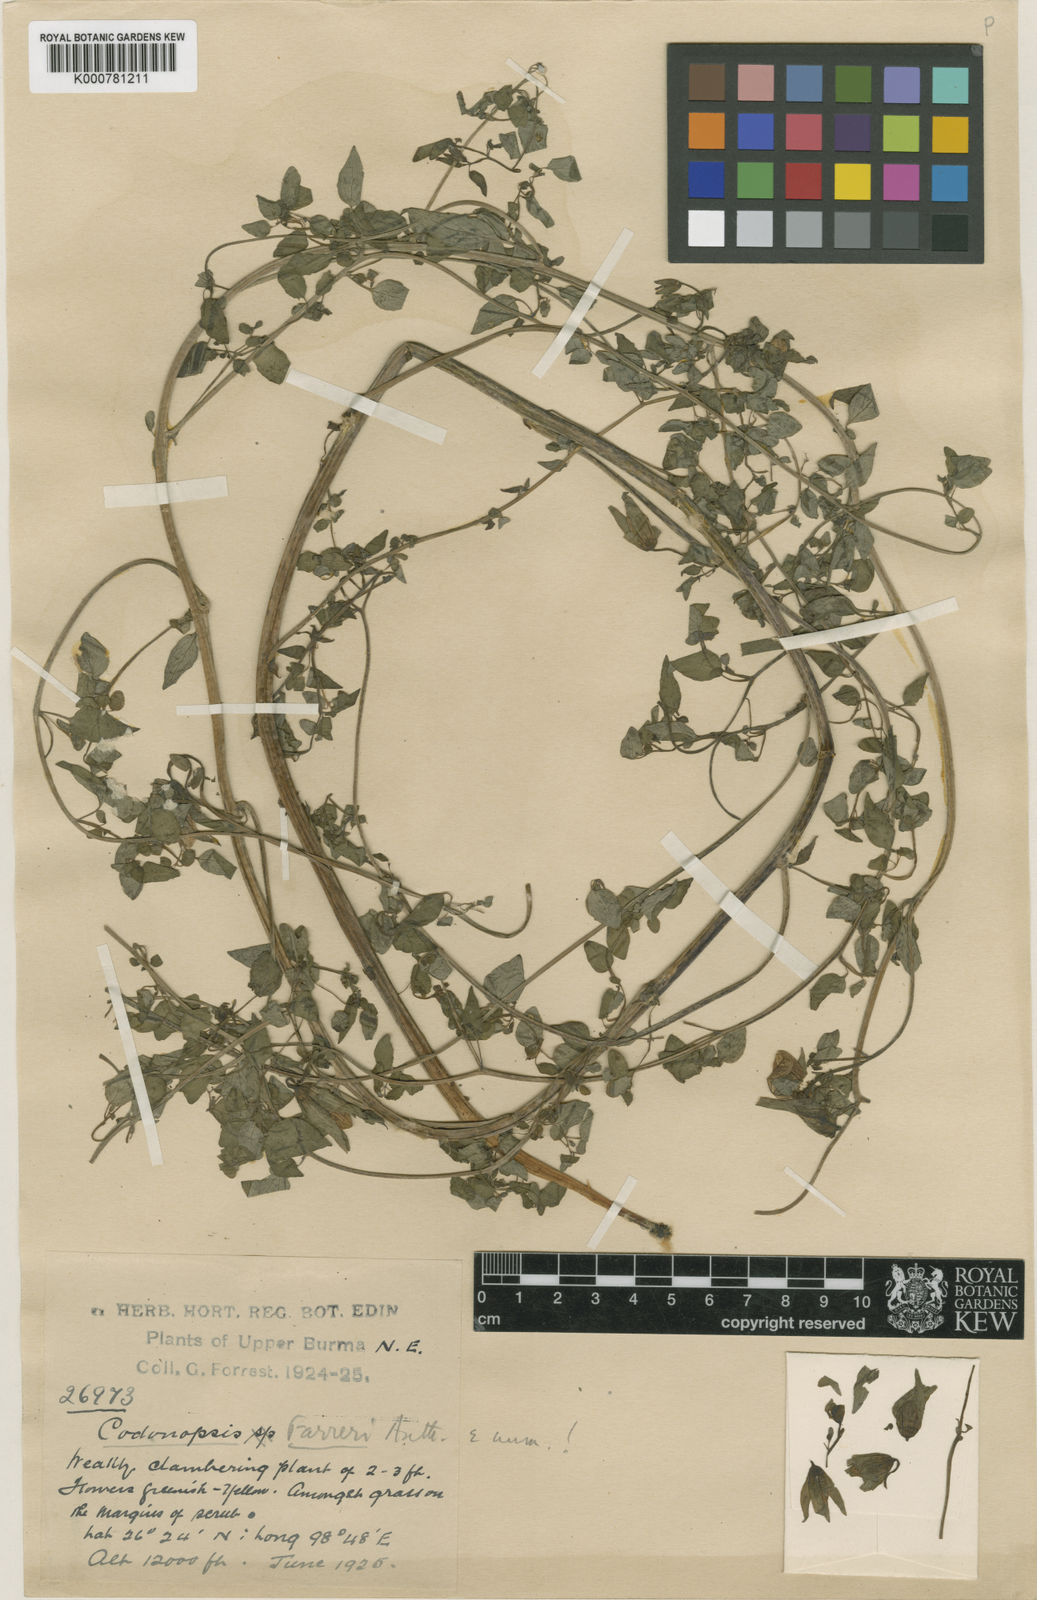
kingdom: Plantae
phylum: Tracheophyta
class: Magnoliopsida
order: Asterales
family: Campanulaceae
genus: Codonopsis
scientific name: Codonopsis farreri
